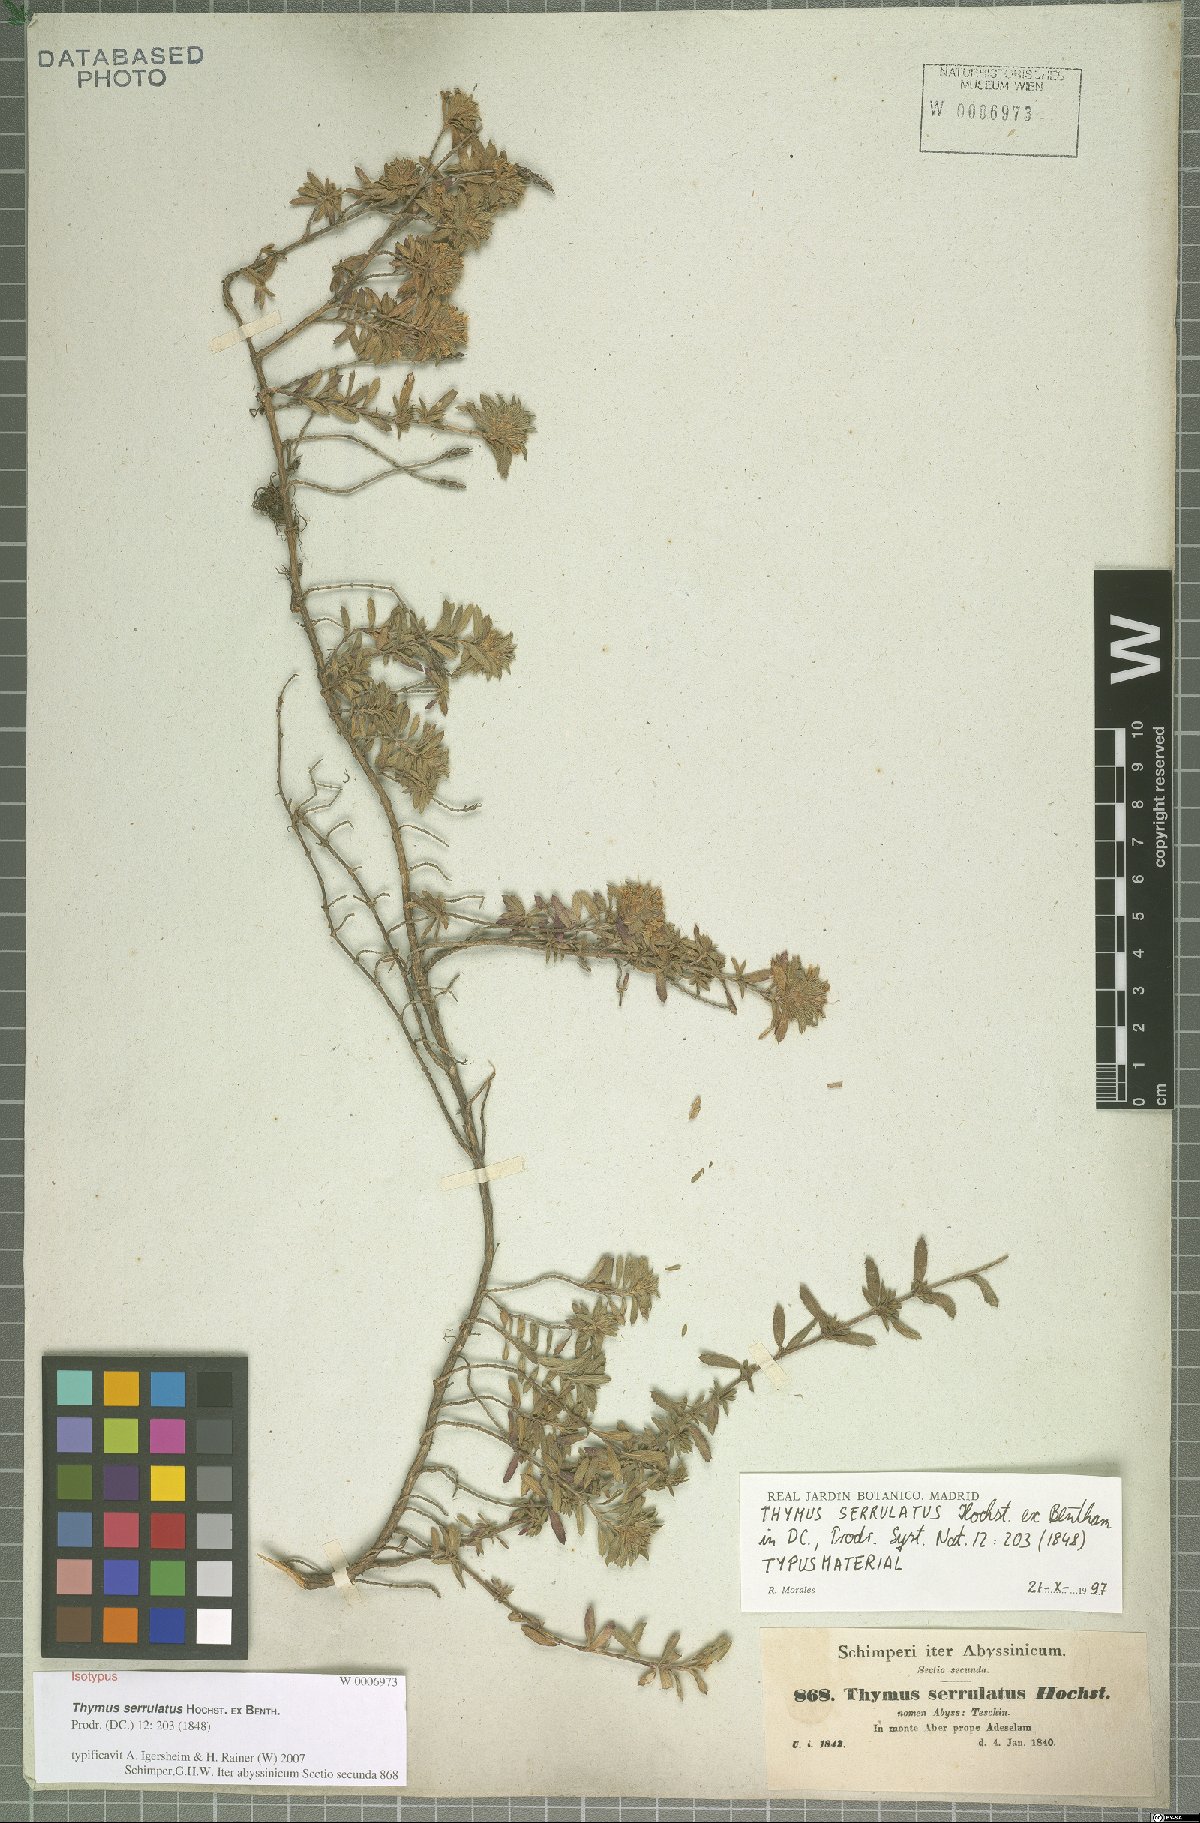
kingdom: Plantae
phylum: Tracheophyta
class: Magnoliopsida
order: Lamiales
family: Lamiaceae
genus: Thymus
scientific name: Thymus serrulatus
